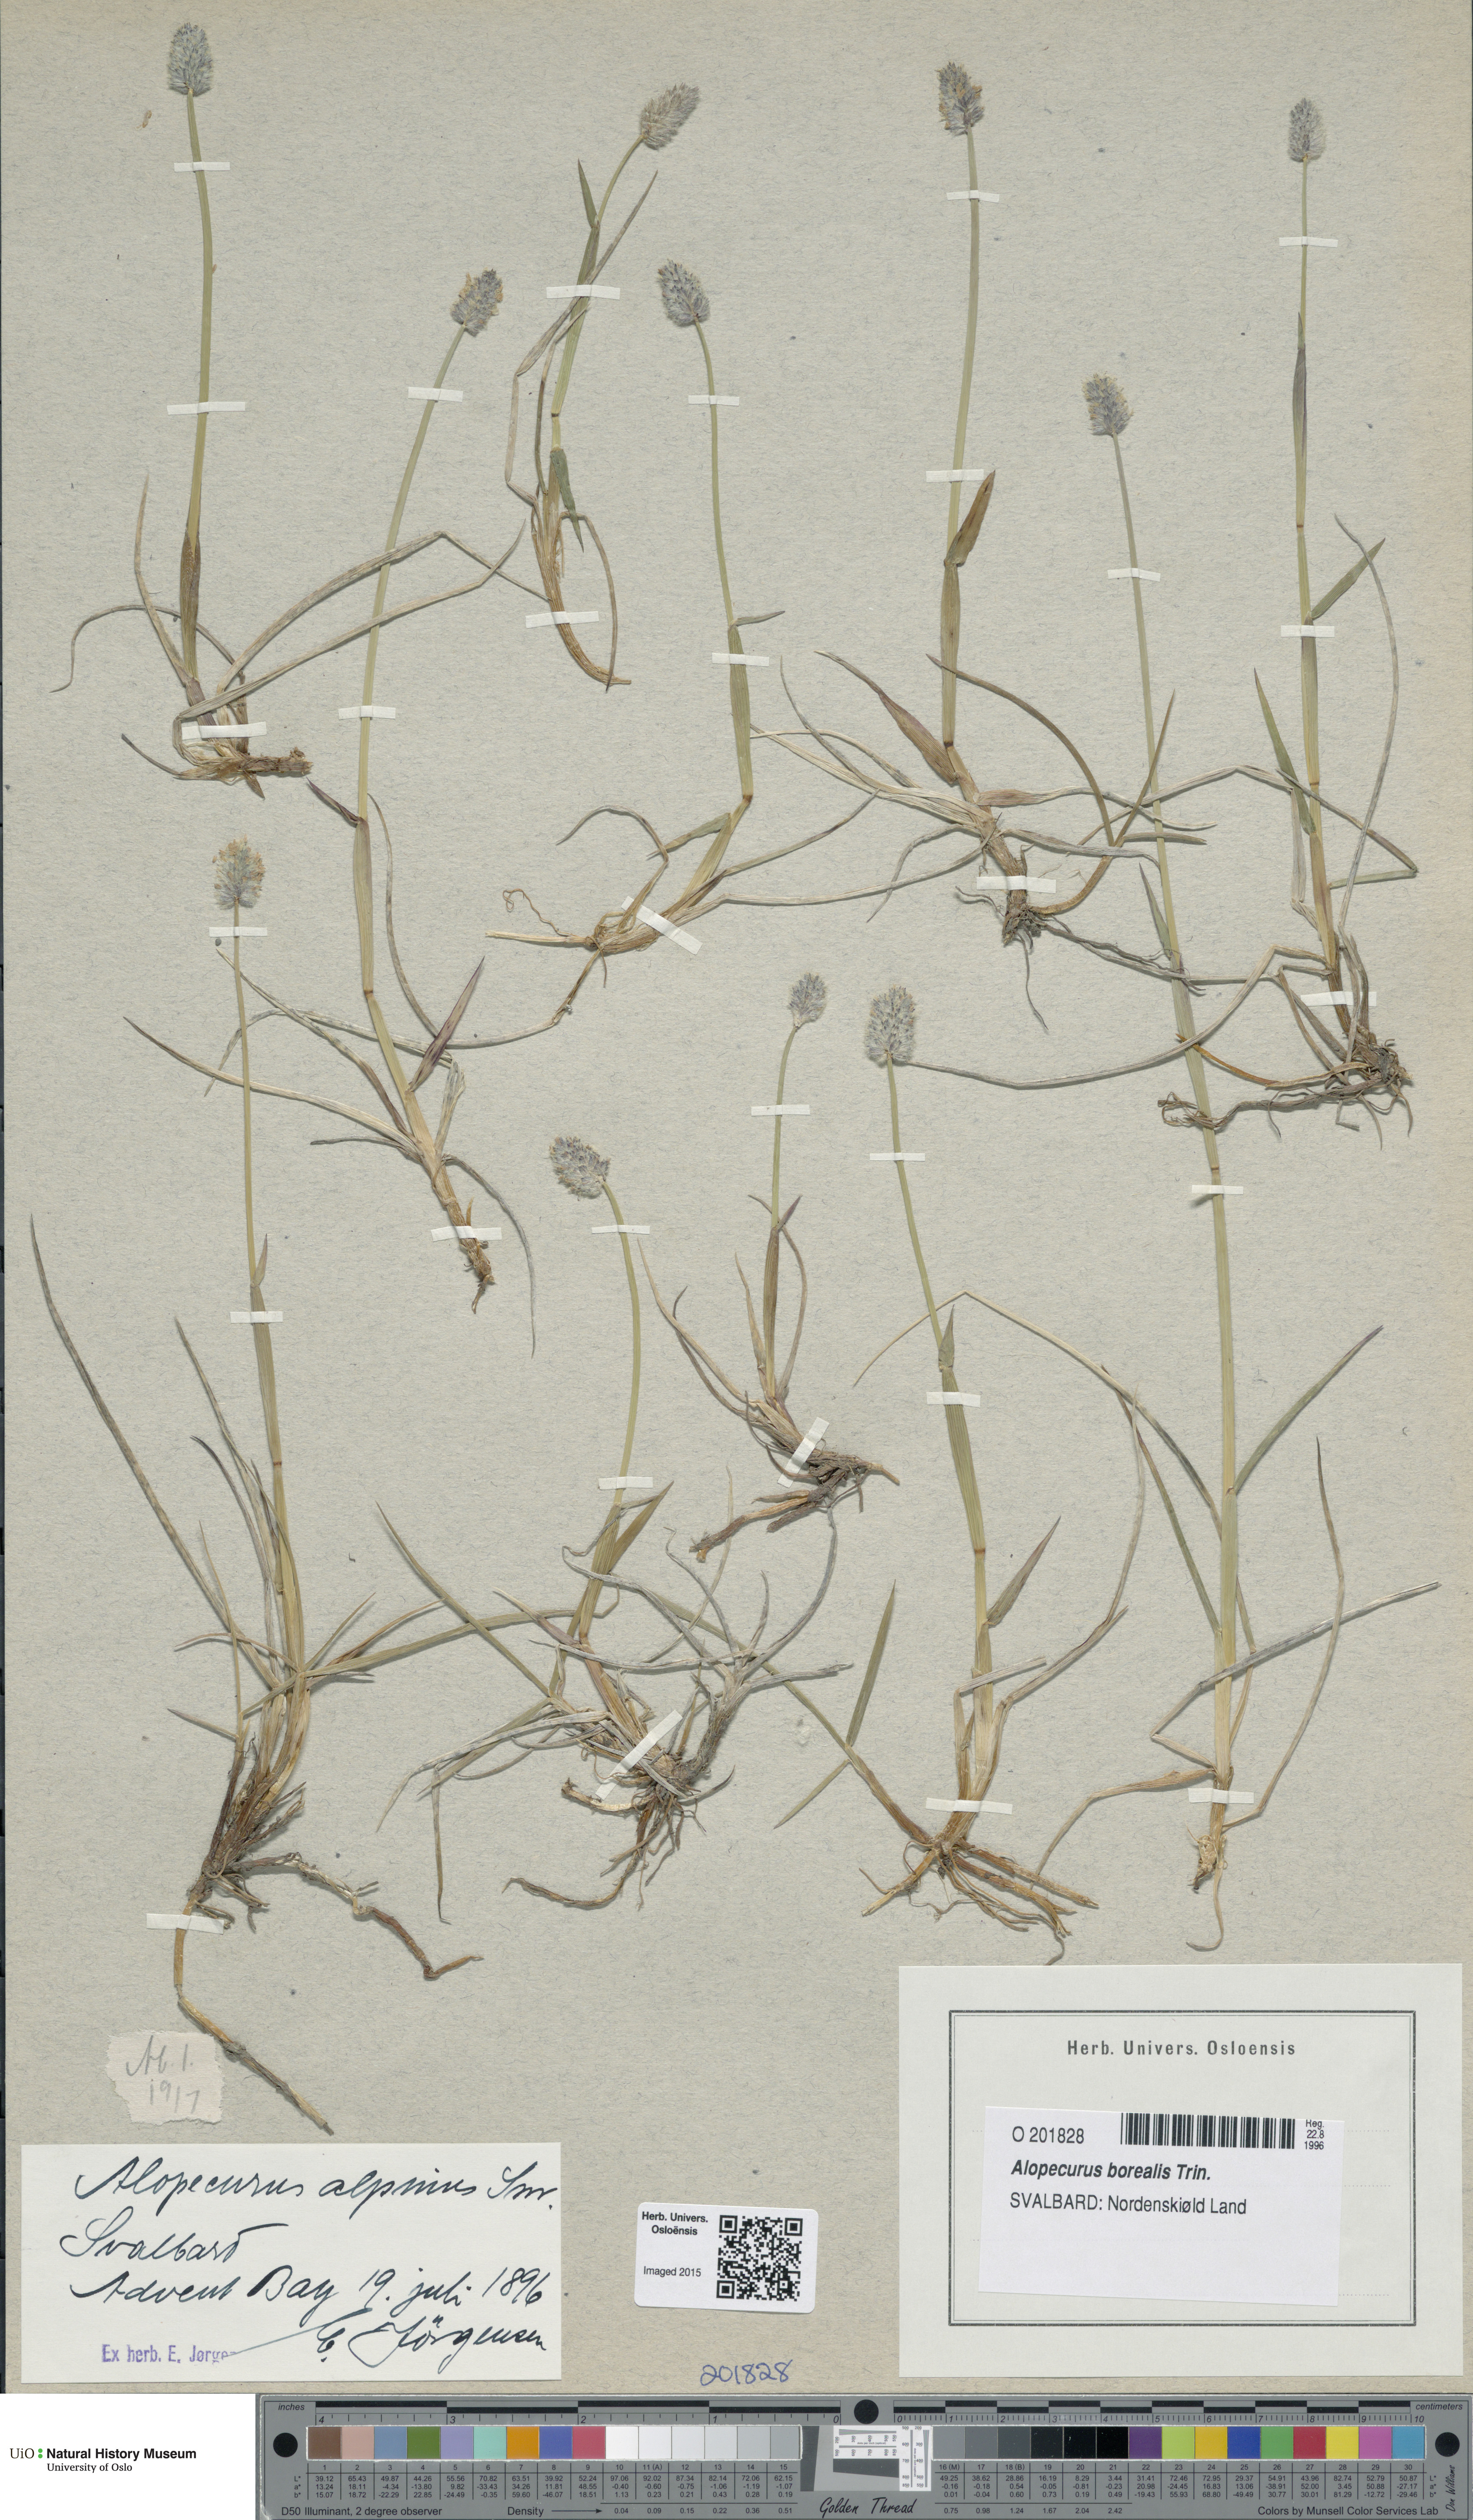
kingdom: Plantae
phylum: Tracheophyta
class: Liliopsida
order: Poales
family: Poaceae
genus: Alopecurus
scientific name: Alopecurus magellanicus
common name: Alpine foxtail
